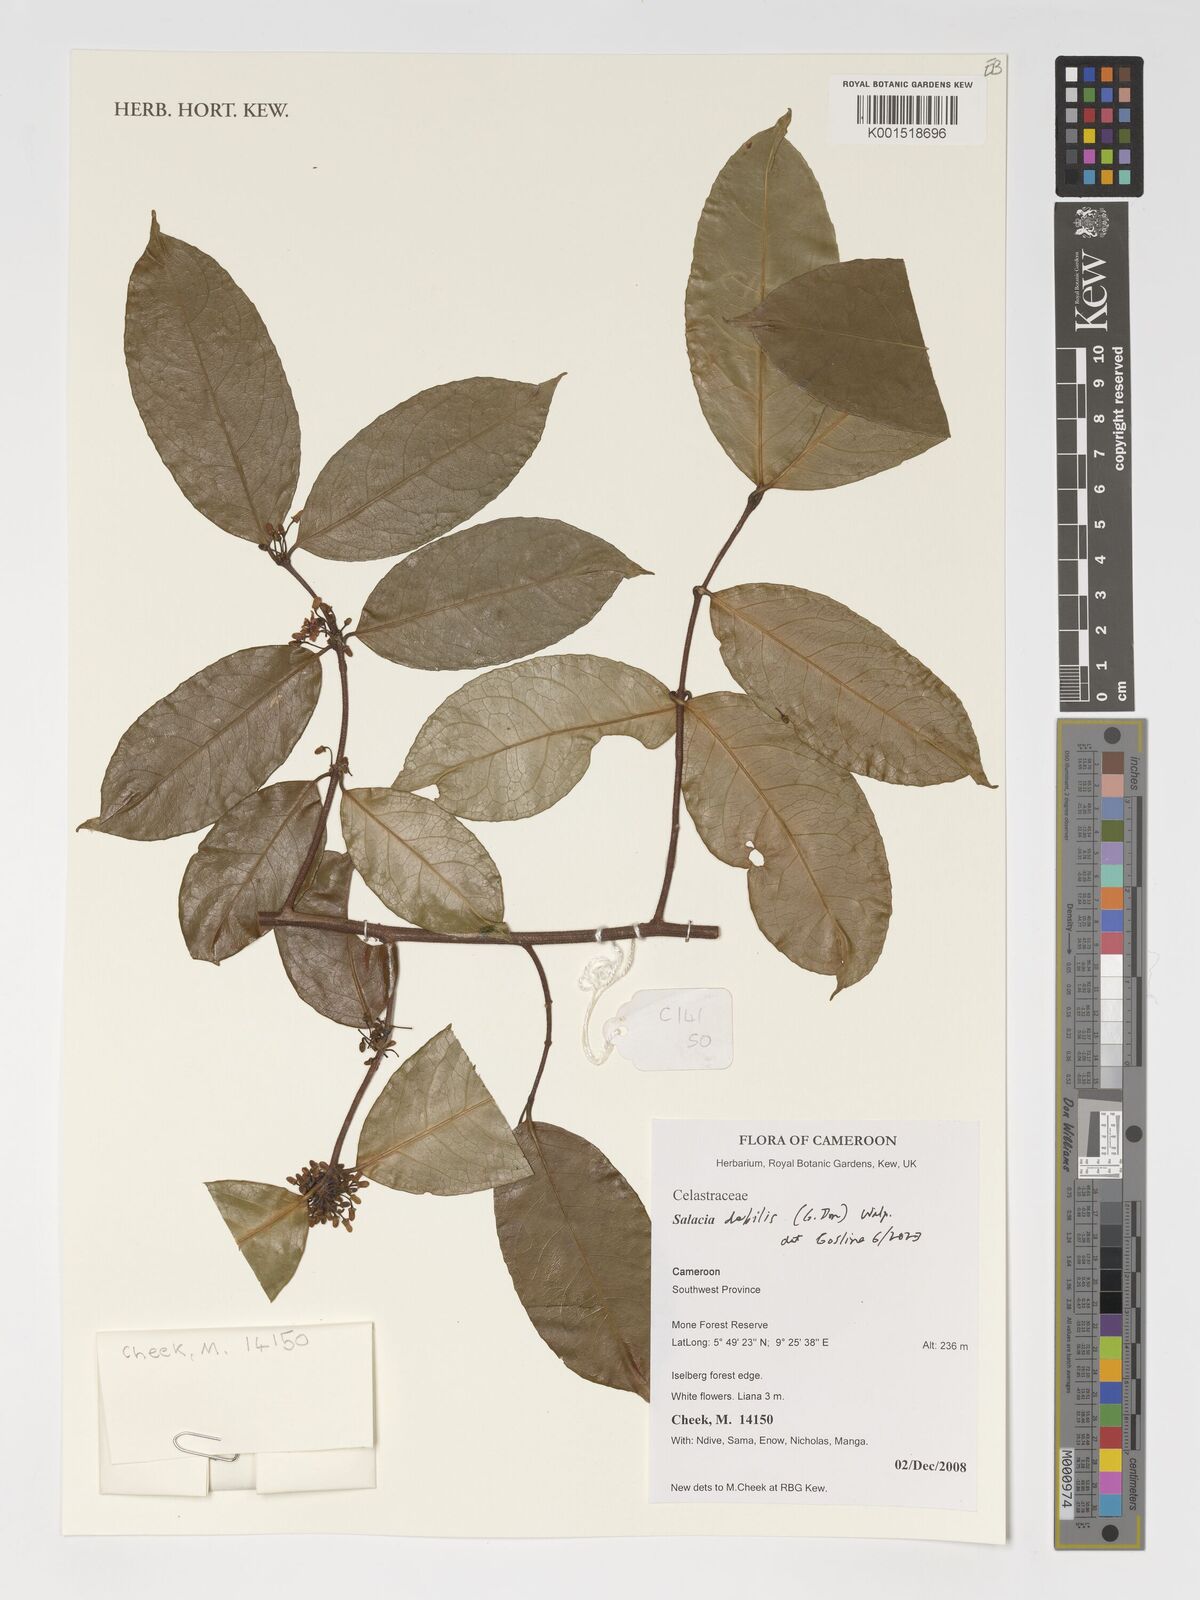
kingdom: Plantae
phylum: Tracheophyta
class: Magnoliopsida
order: Celastrales
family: Celastraceae
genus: Salacia
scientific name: Salacia debilis
